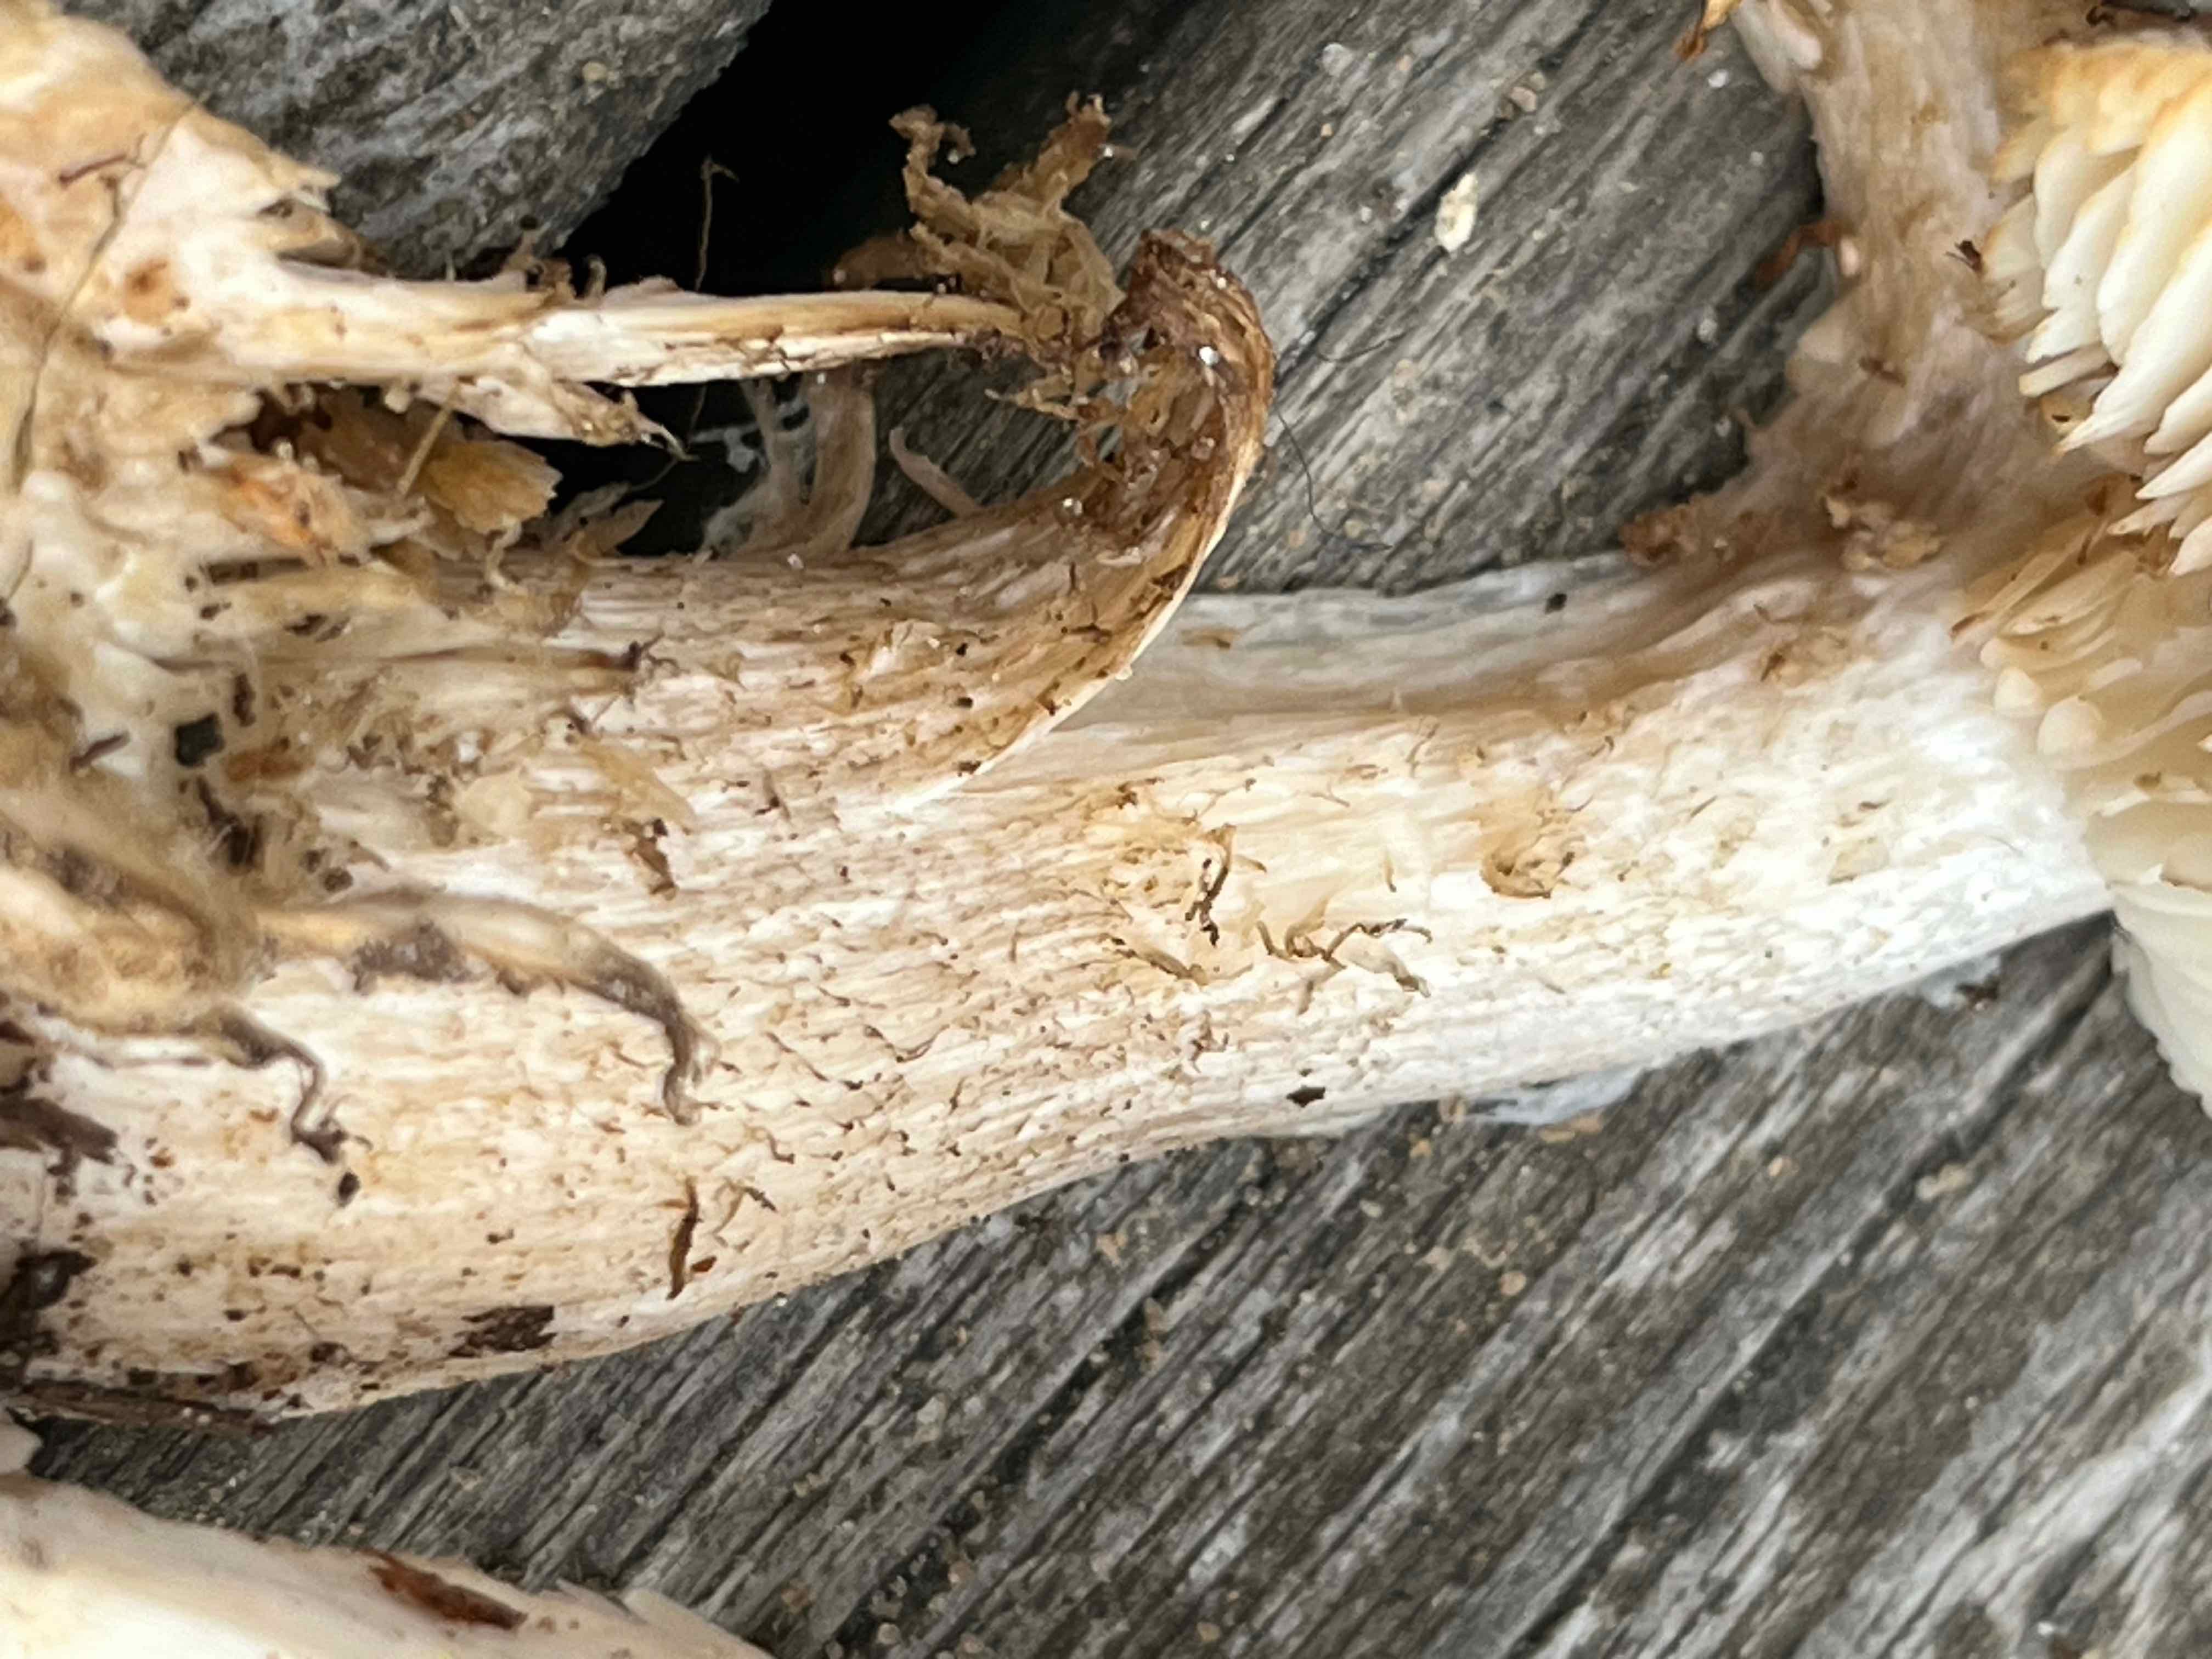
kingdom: Fungi
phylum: Basidiomycota
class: Agaricomycetes
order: Agaricales
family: Tricholomataceae
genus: Tricholoma
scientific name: Tricholoma saponaceum
